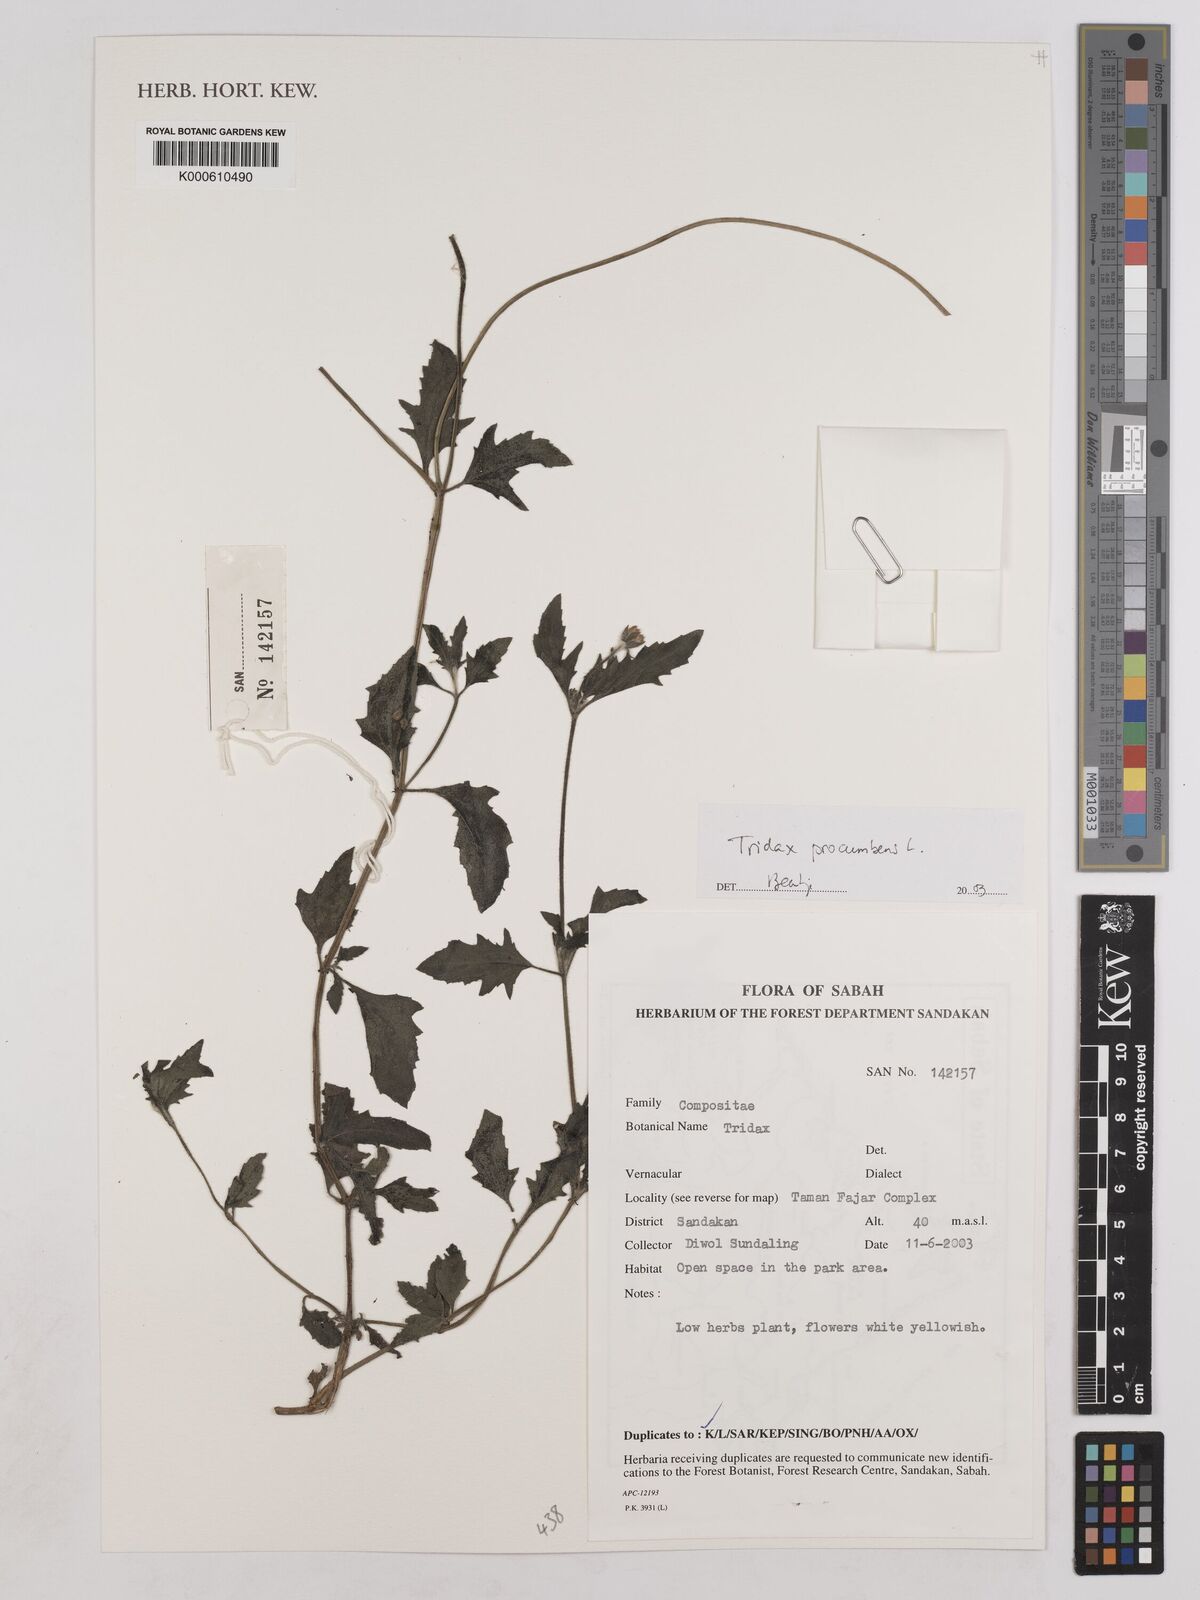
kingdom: Plantae
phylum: Tracheophyta
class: Magnoliopsida
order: Asterales
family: Asteraceae
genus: Tridax
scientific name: Tridax procumbens
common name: Coatbuttons
